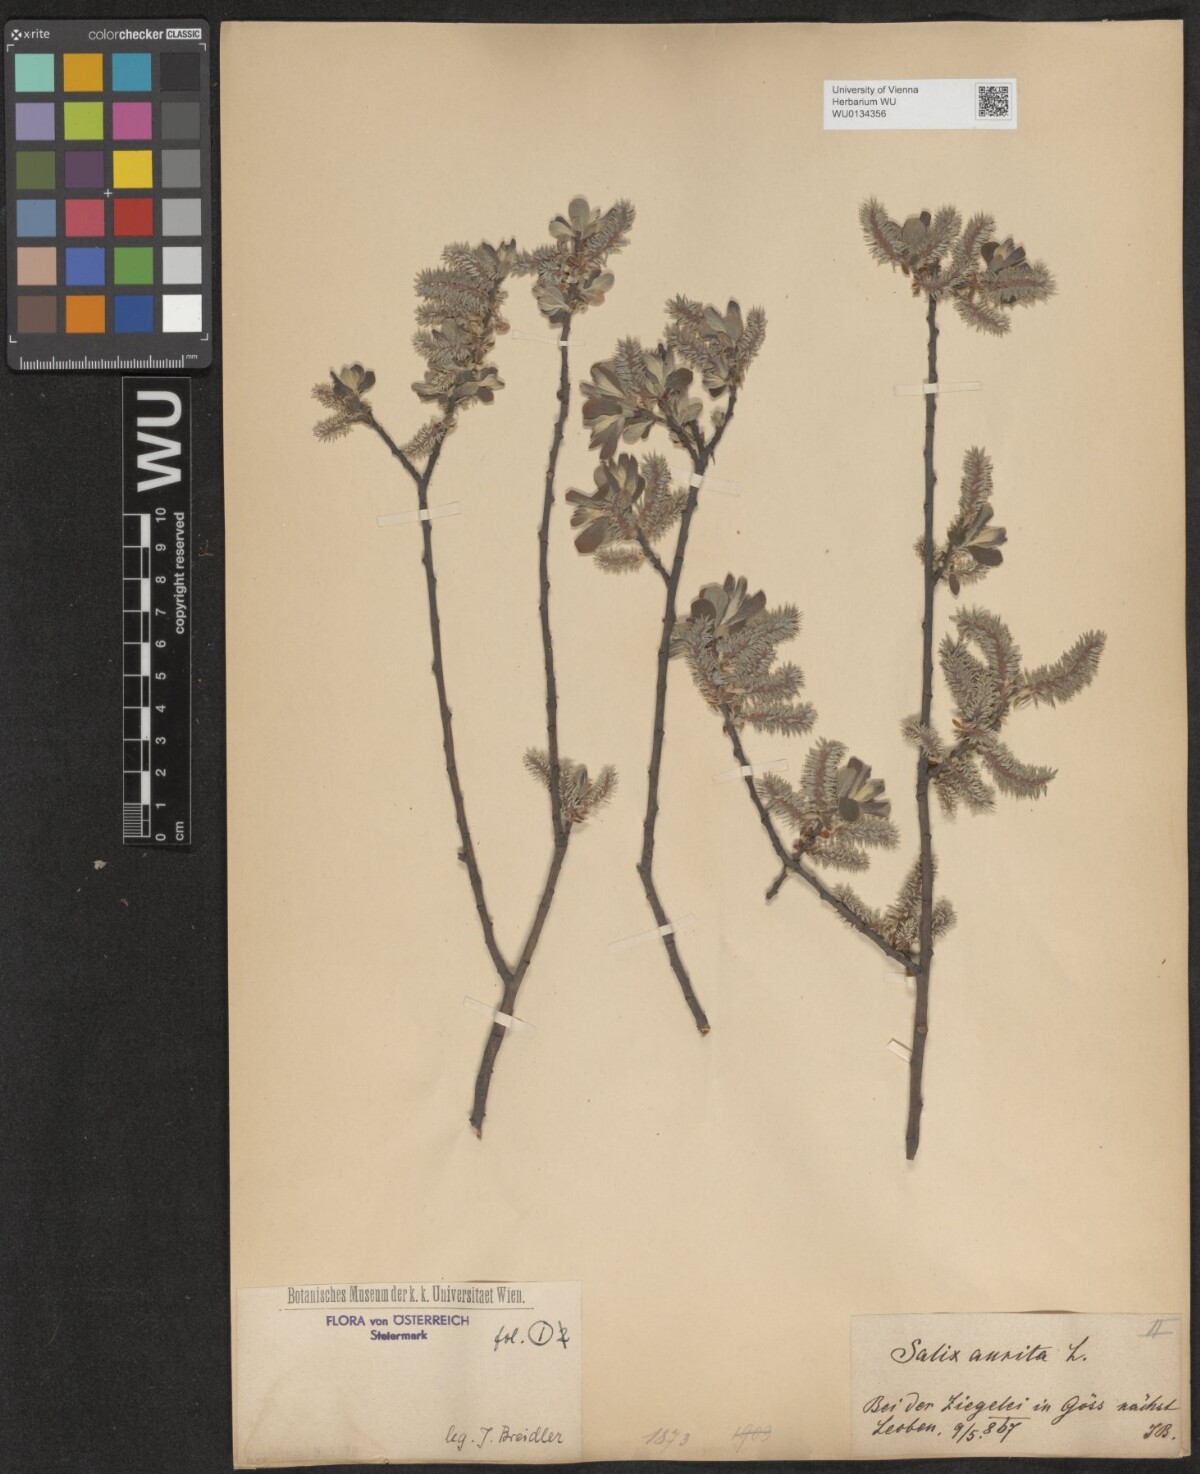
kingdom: Plantae
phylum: Tracheophyta
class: Magnoliopsida
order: Malpighiales
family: Salicaceae
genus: Salix
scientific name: Salix aurita
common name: Eared willow
